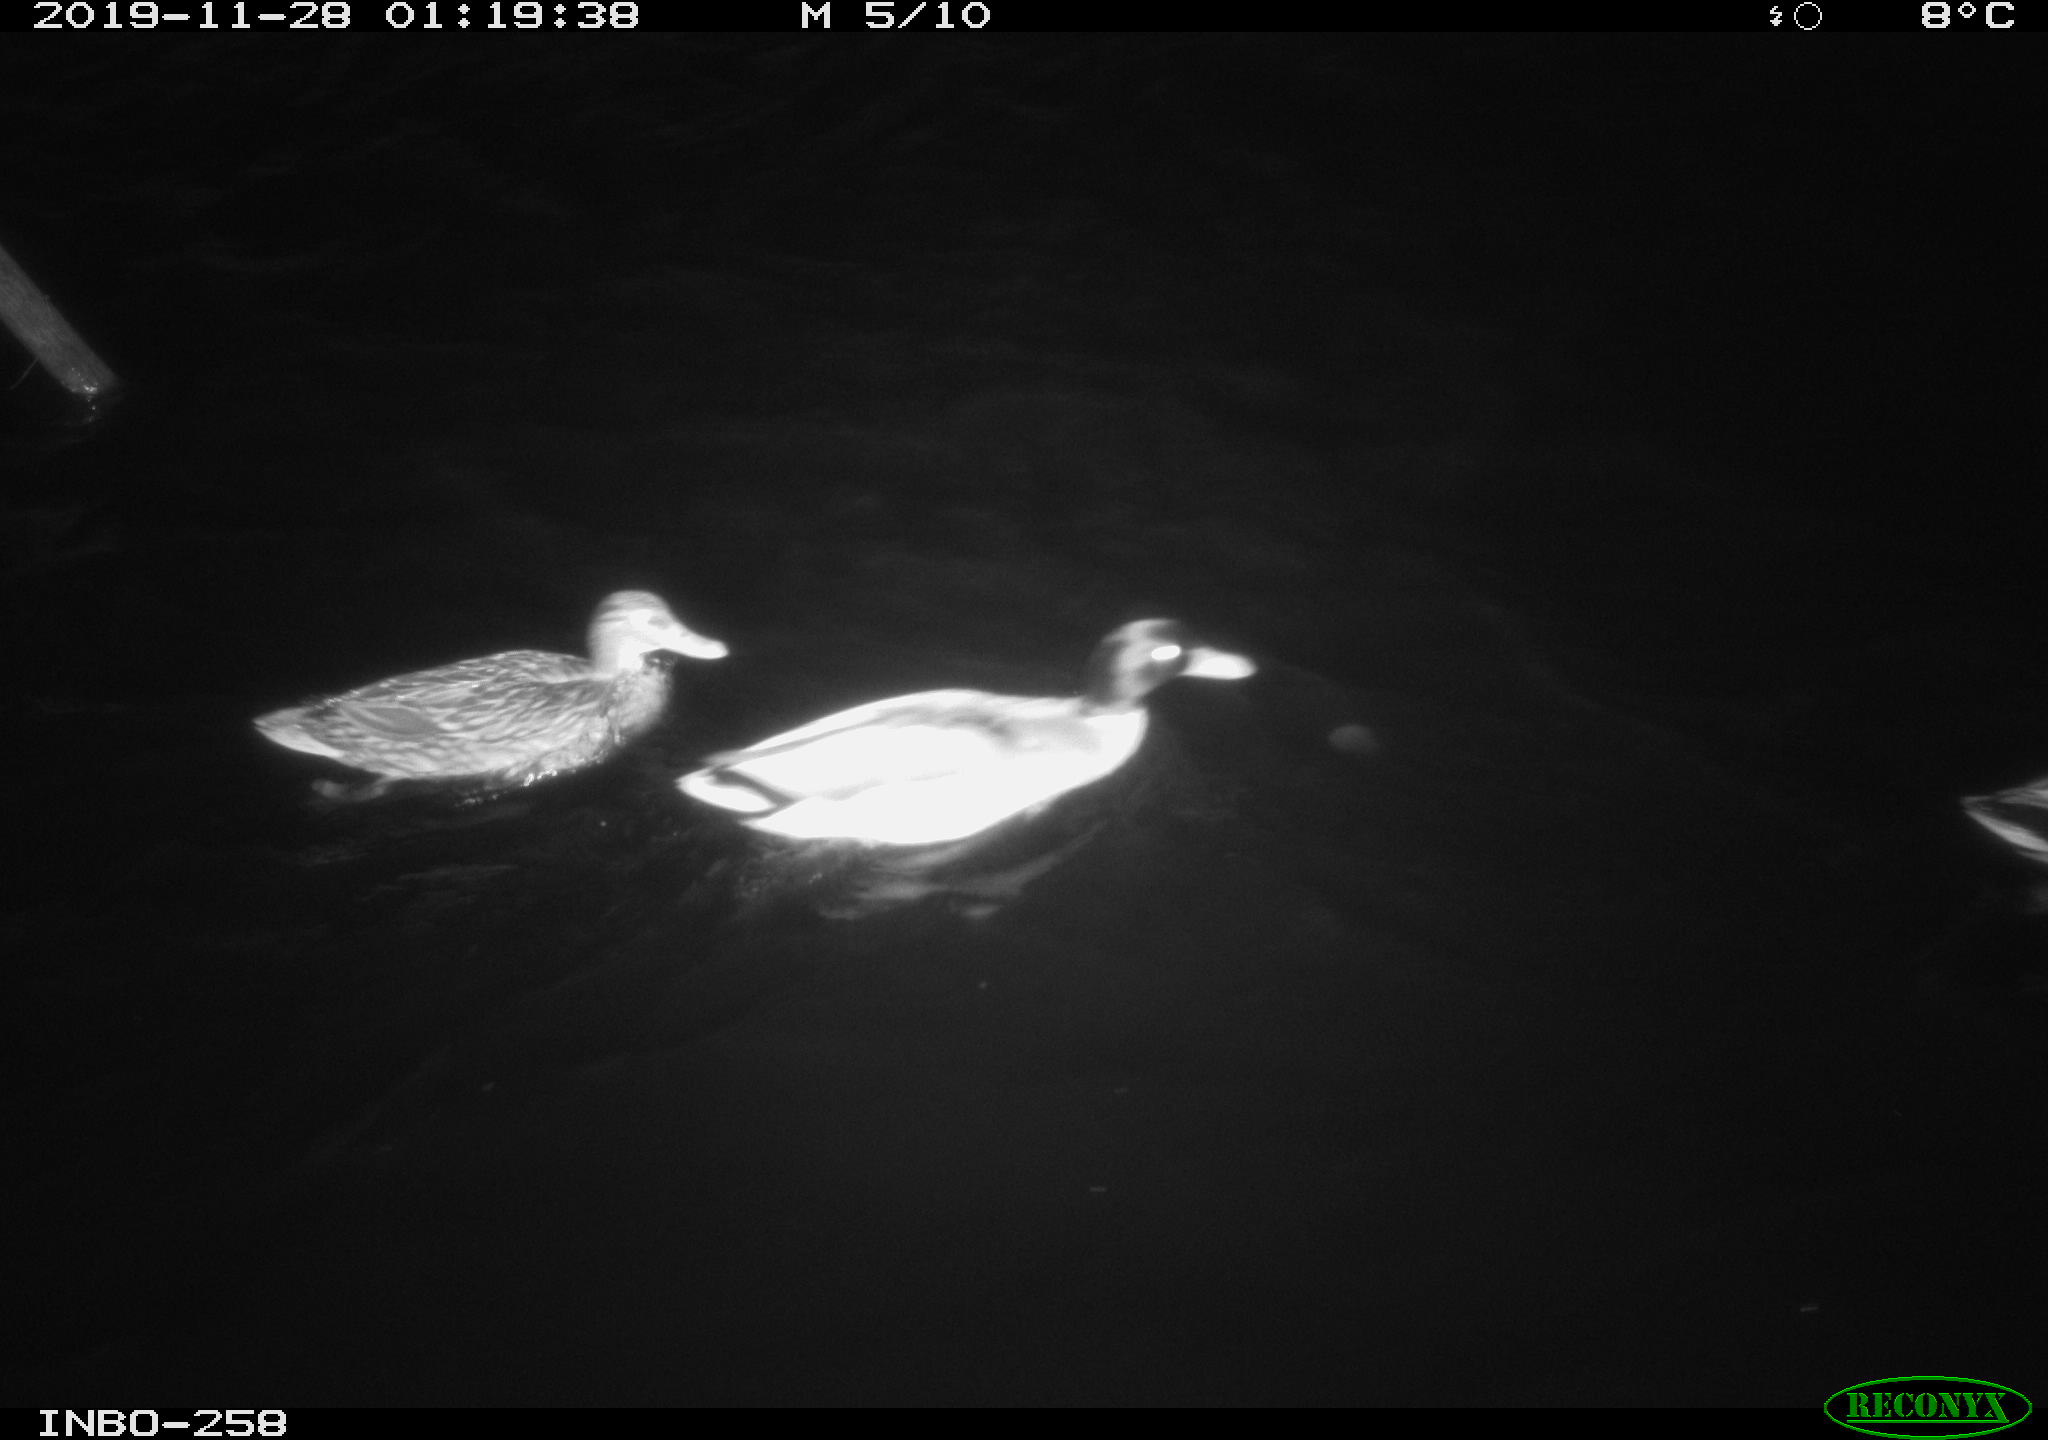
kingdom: Animalia
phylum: Chordata
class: Aves
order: Anseriformes
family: Anatidae
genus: Anas
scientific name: Anas platyrhynchos
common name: Mallard
